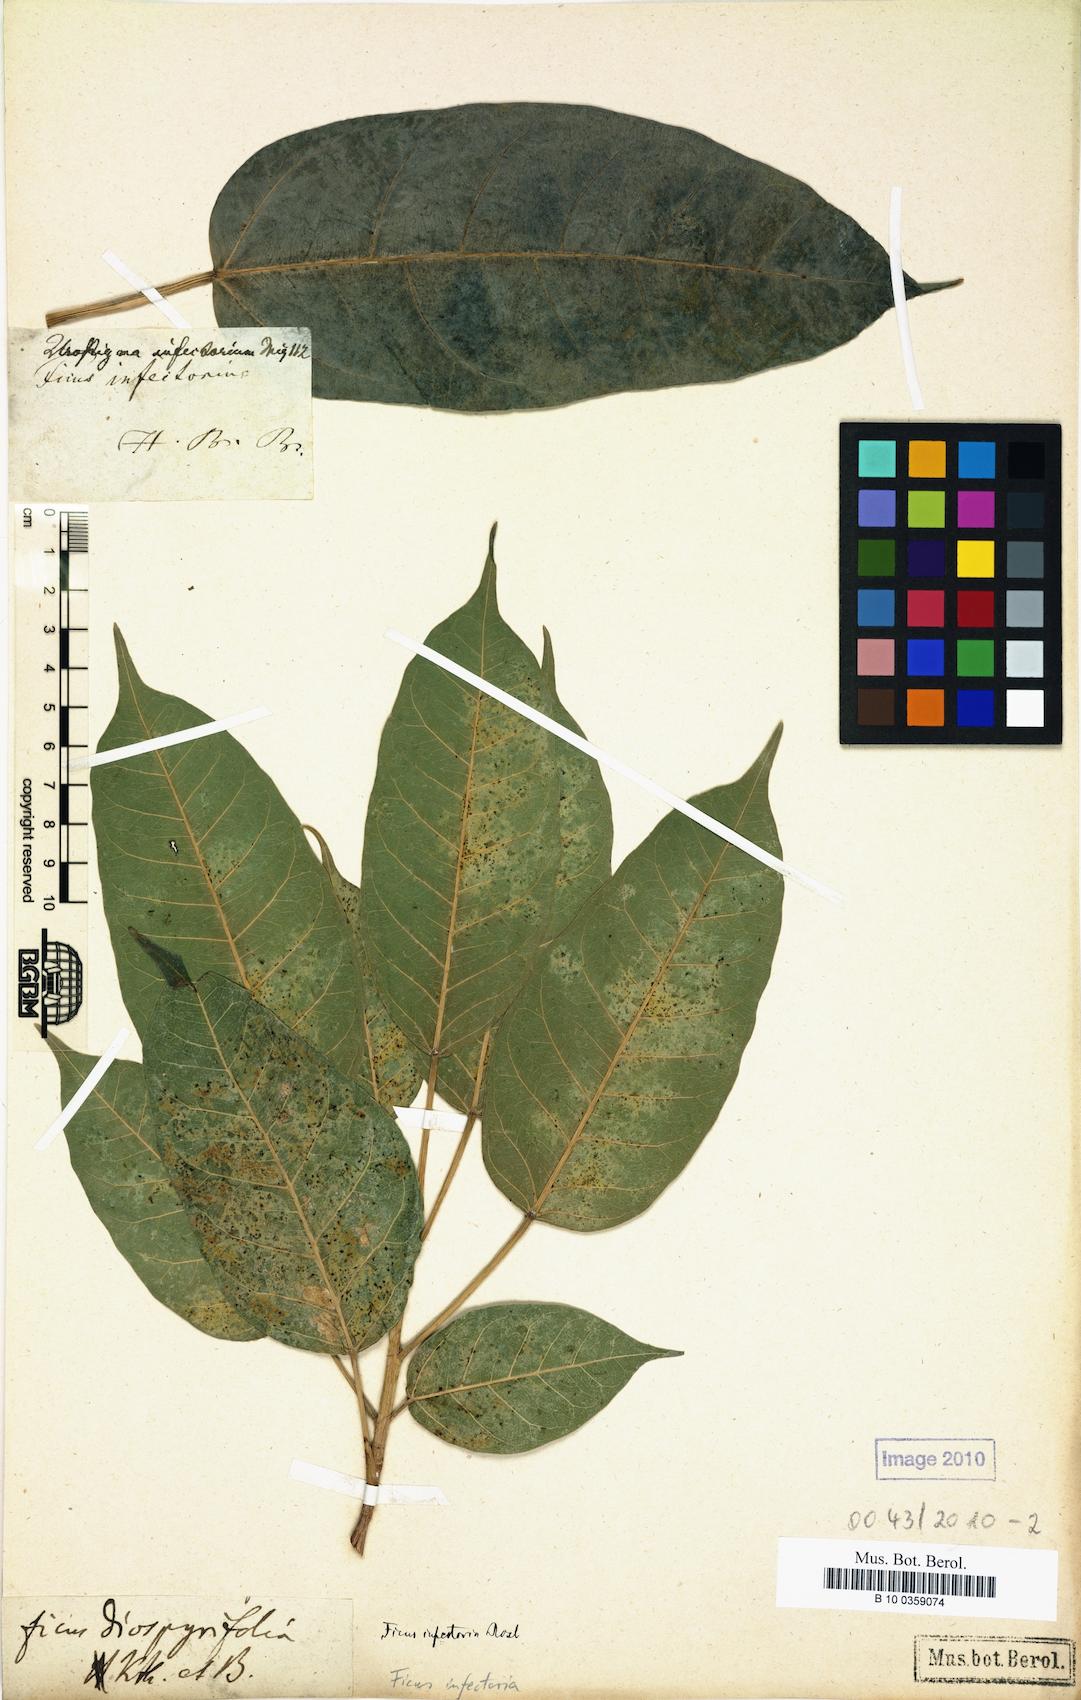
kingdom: Plantae
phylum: Tracheophyta
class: Magnoliopsida
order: Rosales
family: Moraceae
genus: Ficus
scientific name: Ficus virens
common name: Spotted fig
